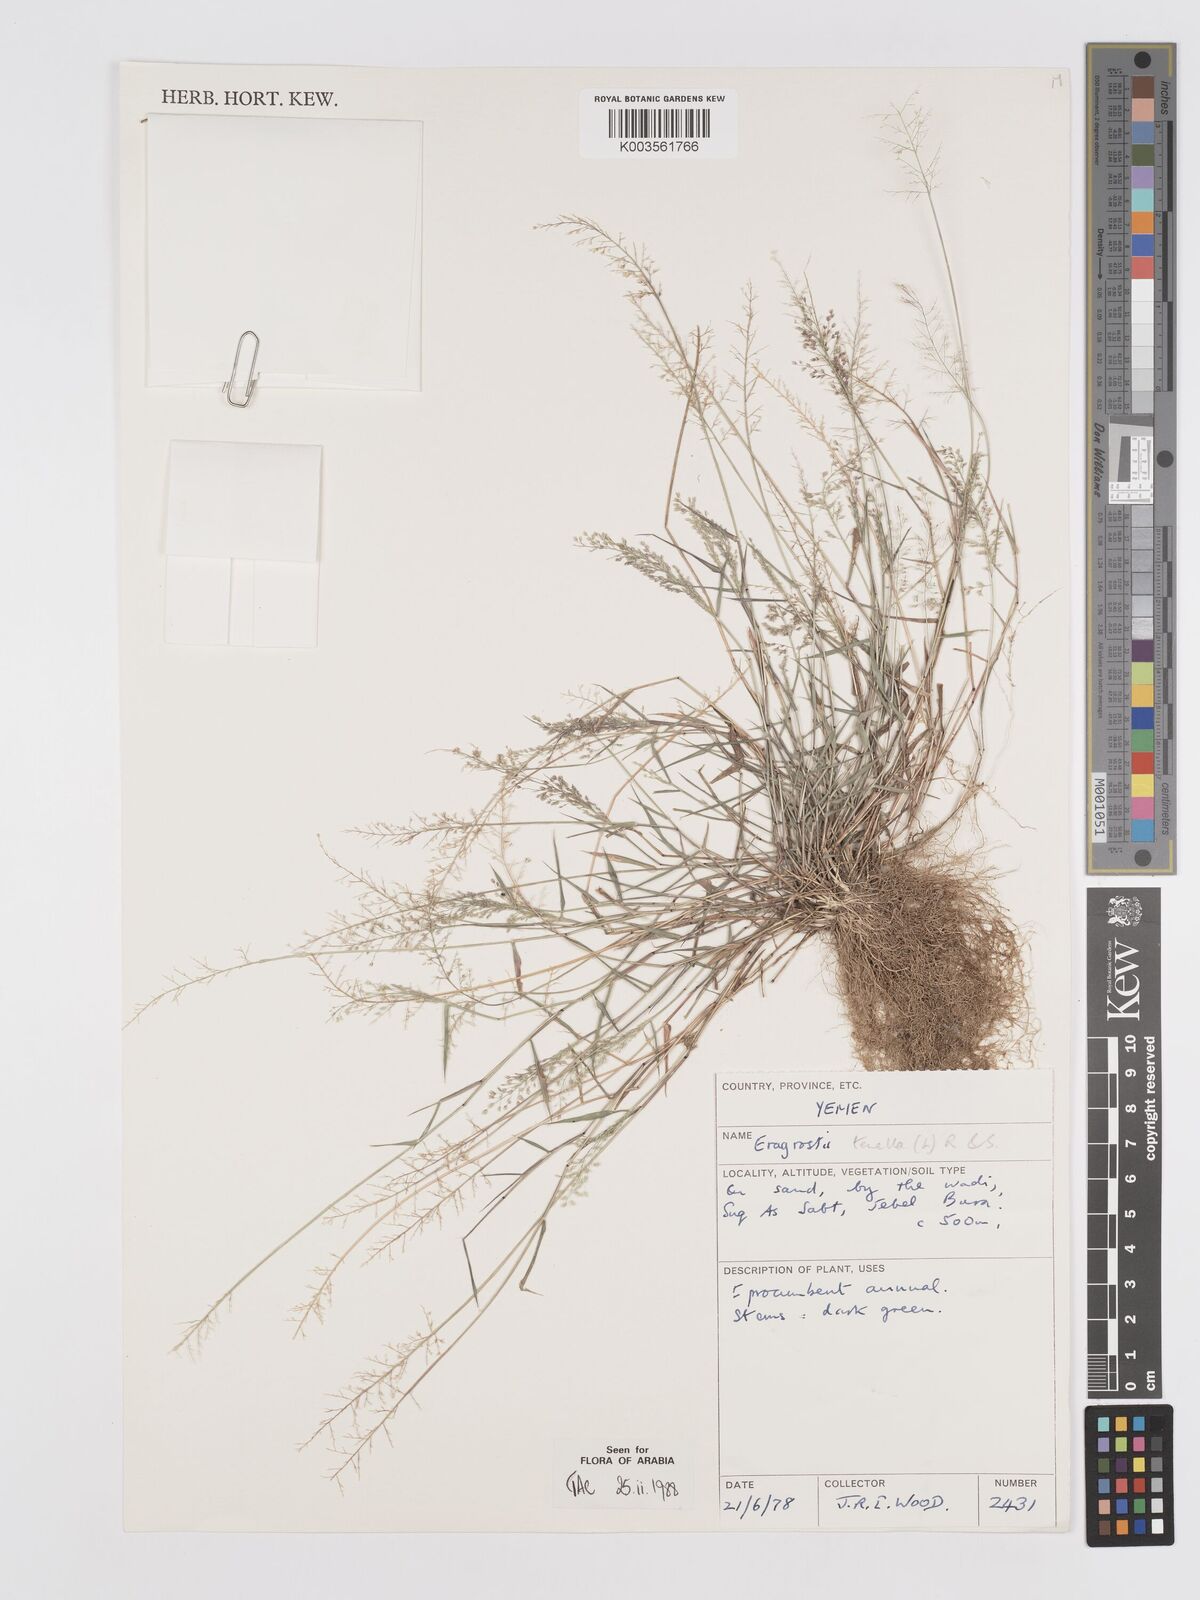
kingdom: Plantae
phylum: Tracheophyta
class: Liliopsida
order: Poales
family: Poaceae
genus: Eragrostis
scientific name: Eragrostis tenella
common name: Japanese lovegrass
